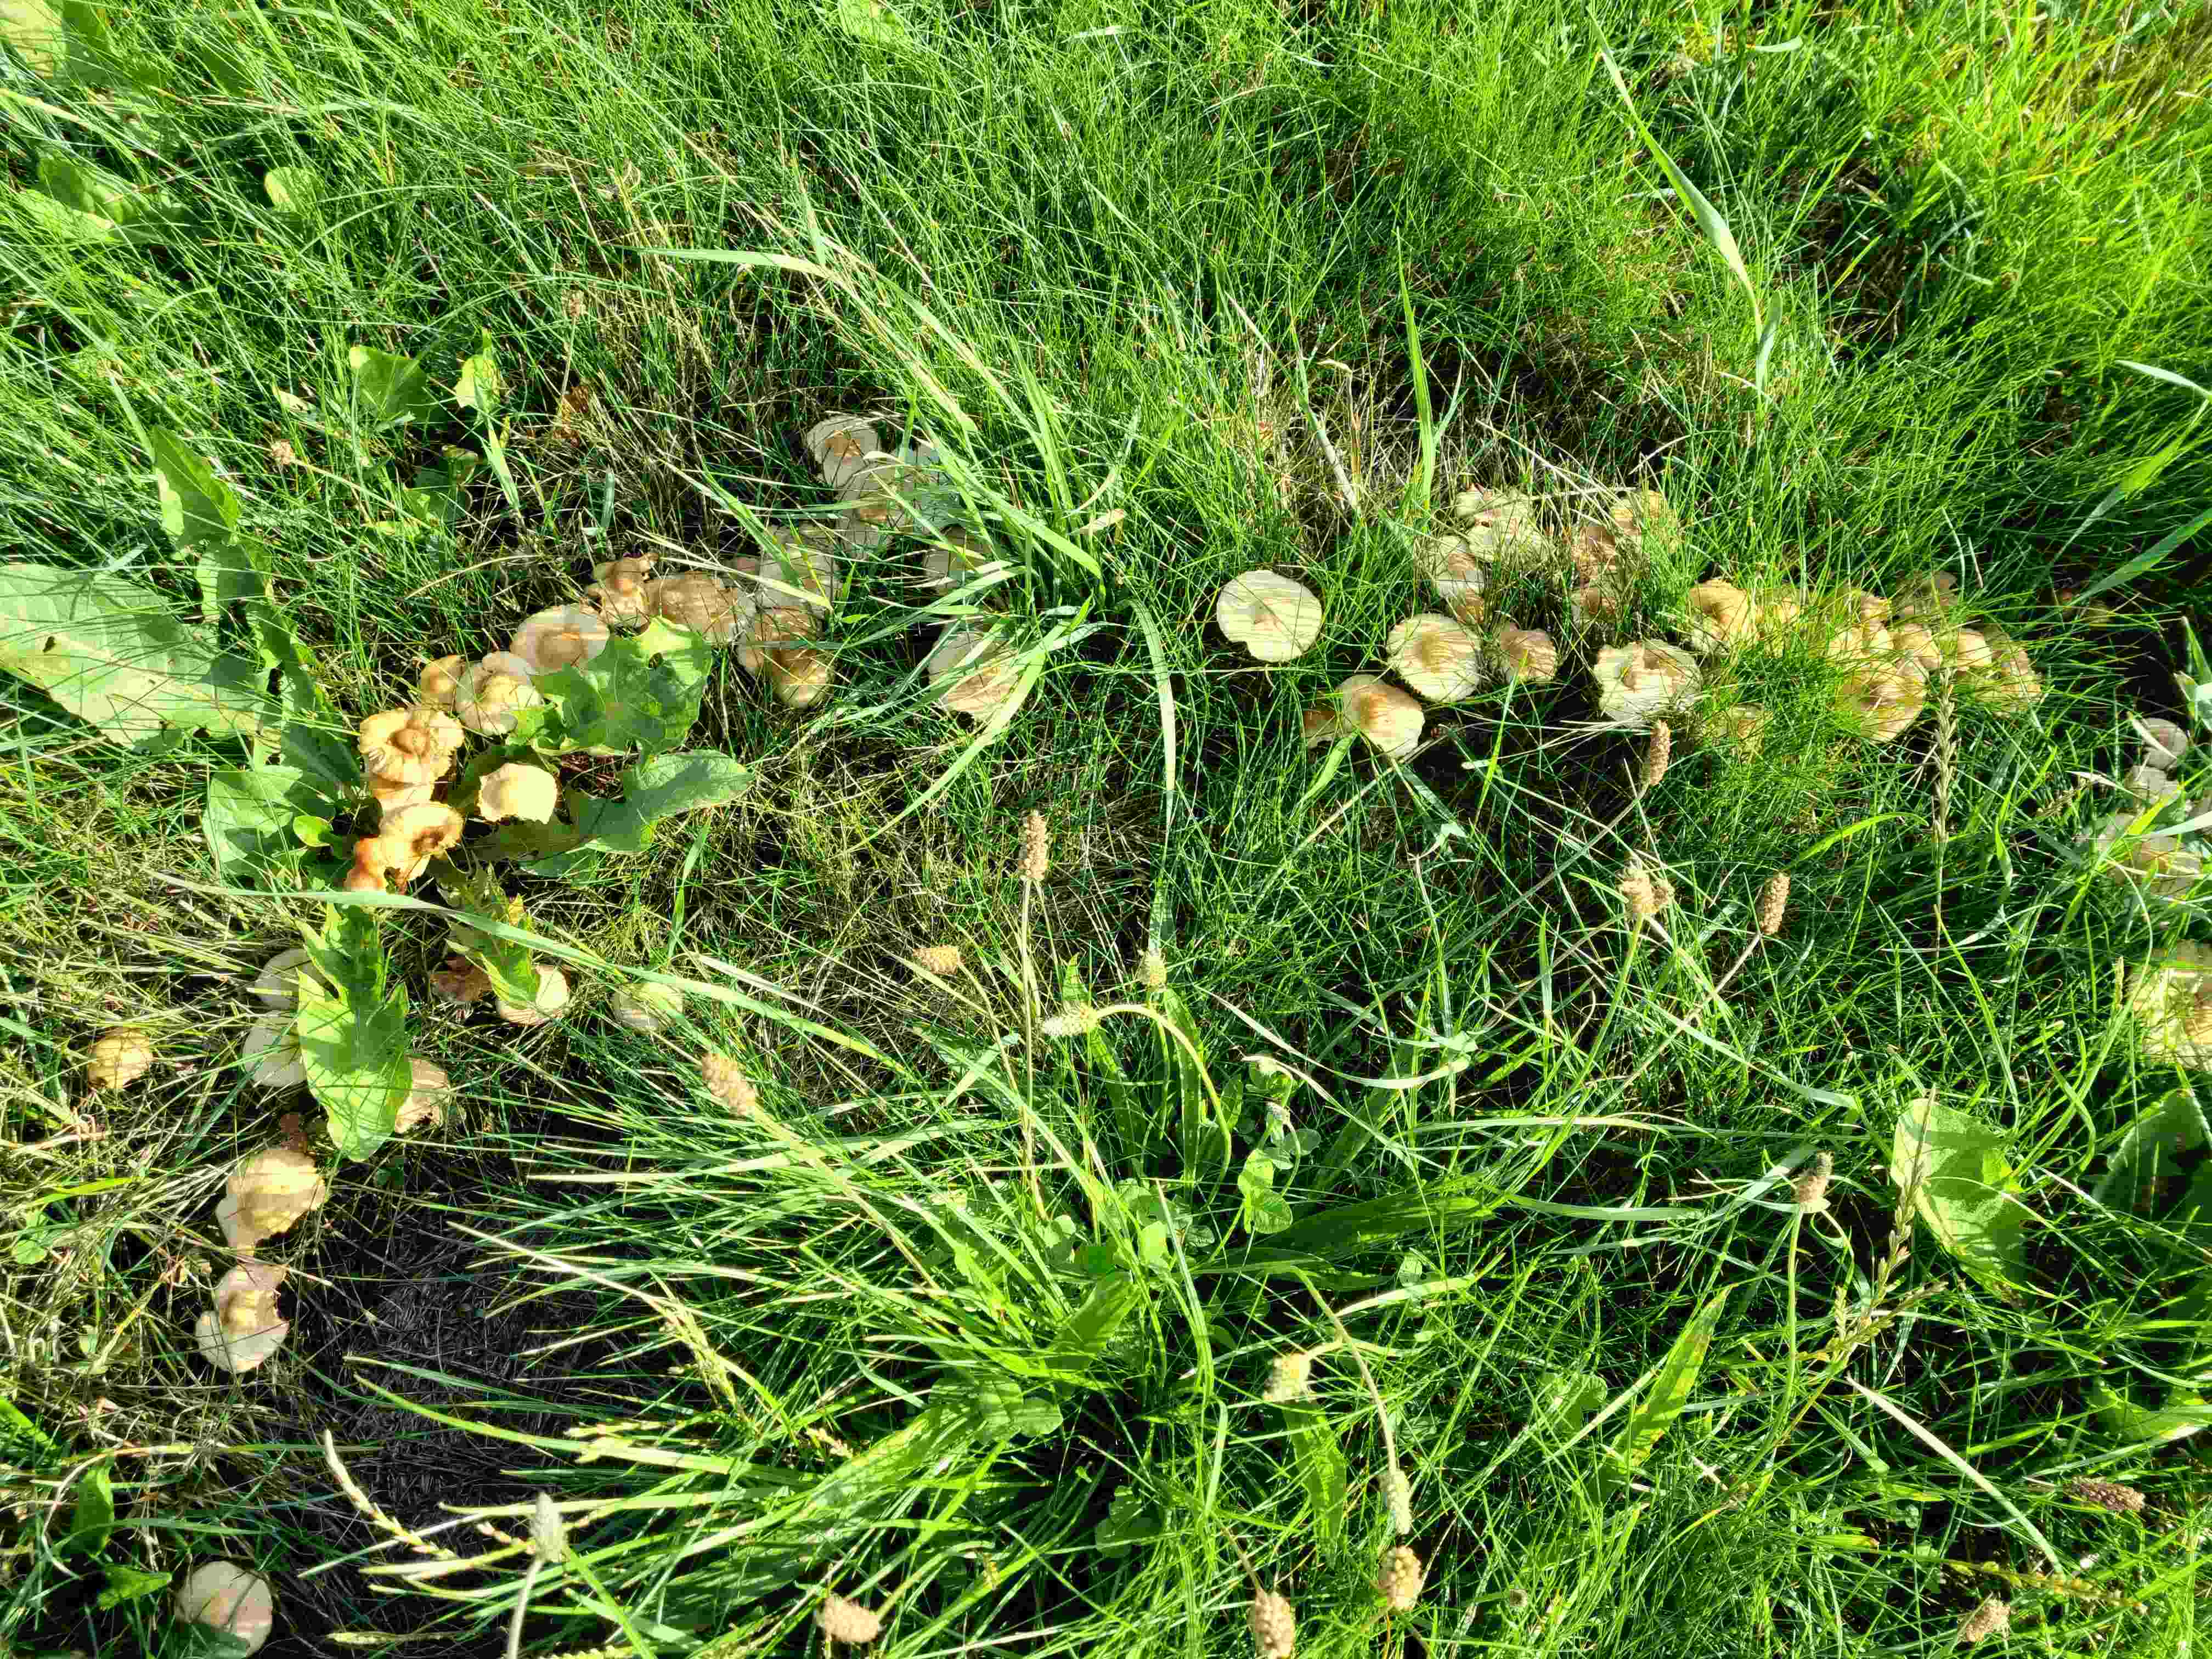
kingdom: Fungi
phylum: Basidiomycota
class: Agaricomycetes
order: Agaricales
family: Marasmiaceae
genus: Marasmius
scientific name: Marasmius oreades
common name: elledans-bruskhat
